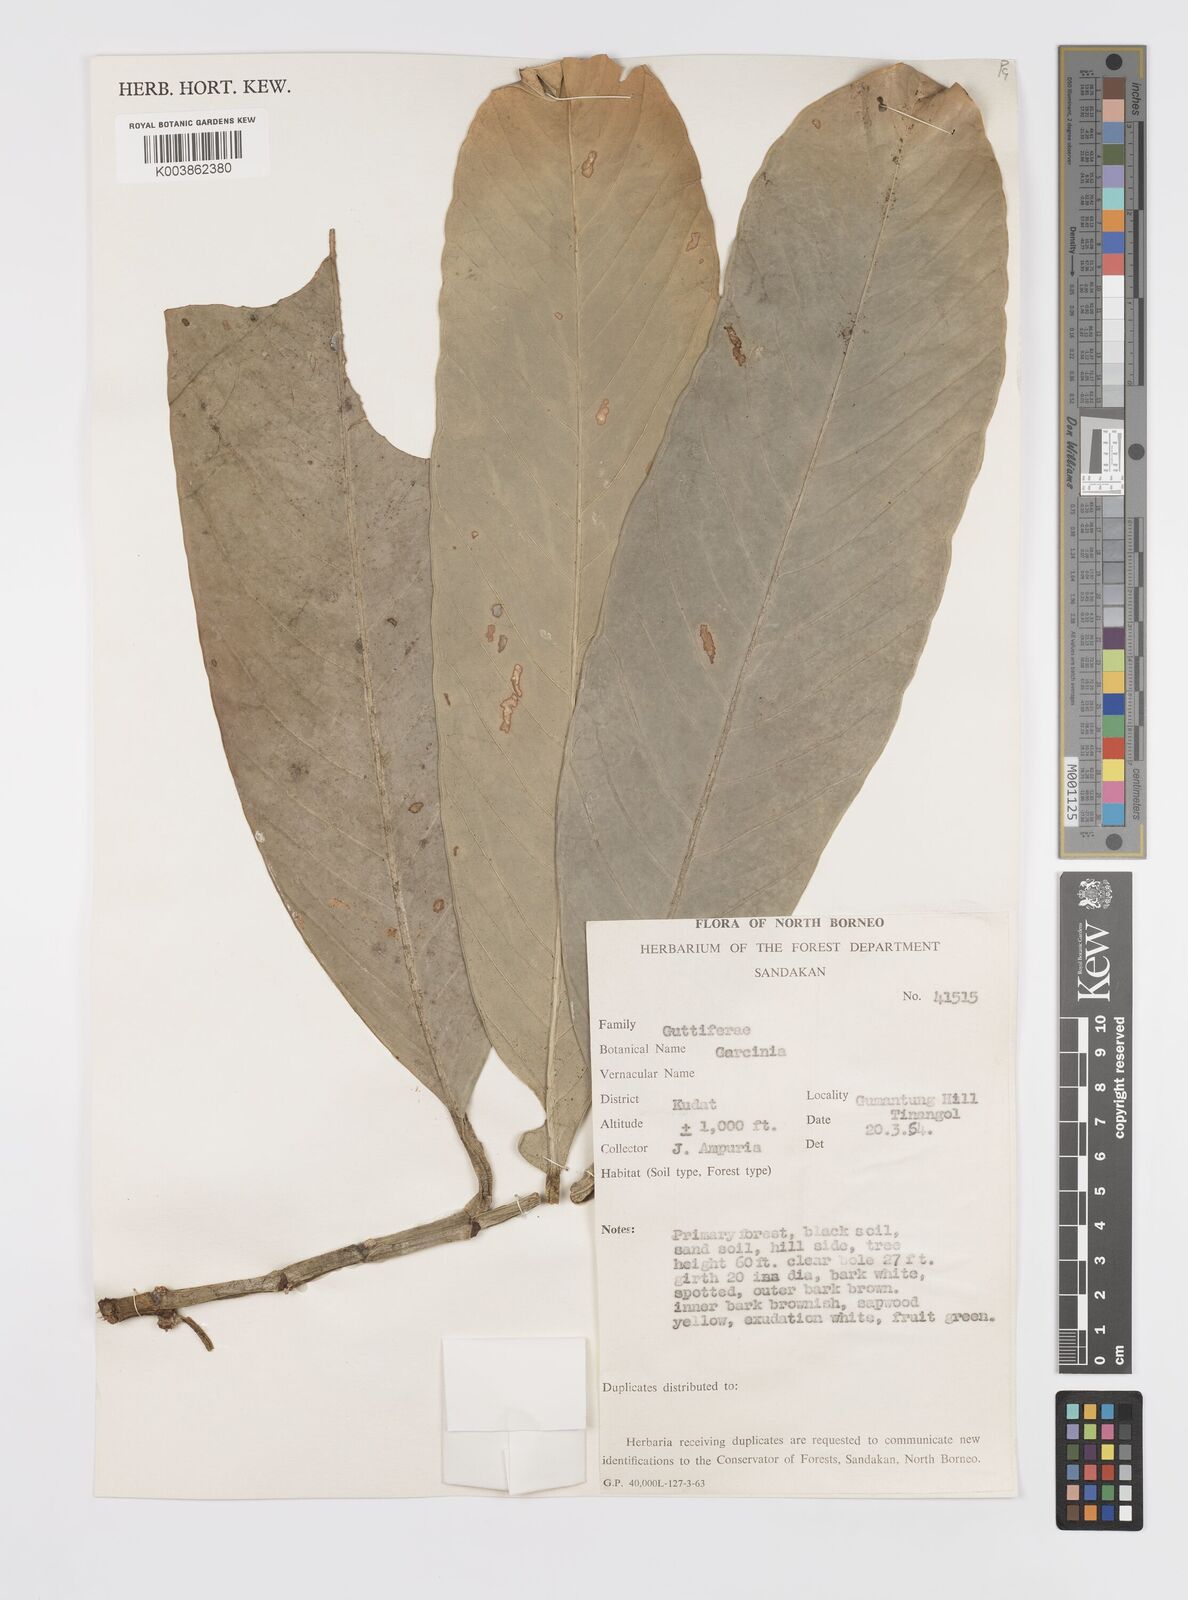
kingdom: Plantae
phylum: Tracheophyta
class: Magnoliopsida
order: Malpighiales
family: Clusiaceae
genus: Garcinia
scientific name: Garcinia
